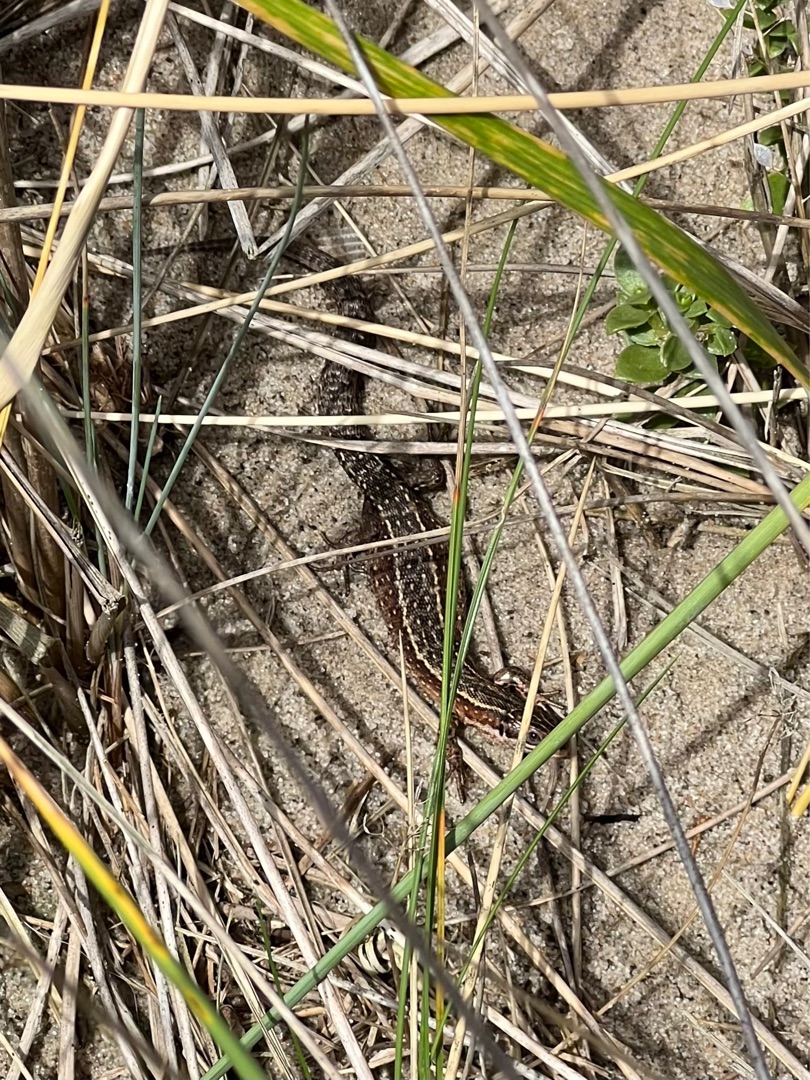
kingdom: Animalia
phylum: Chordata
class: Squamata
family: Lacertidae
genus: Zootoca
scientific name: Zootoca vivipara
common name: Skovfirben
